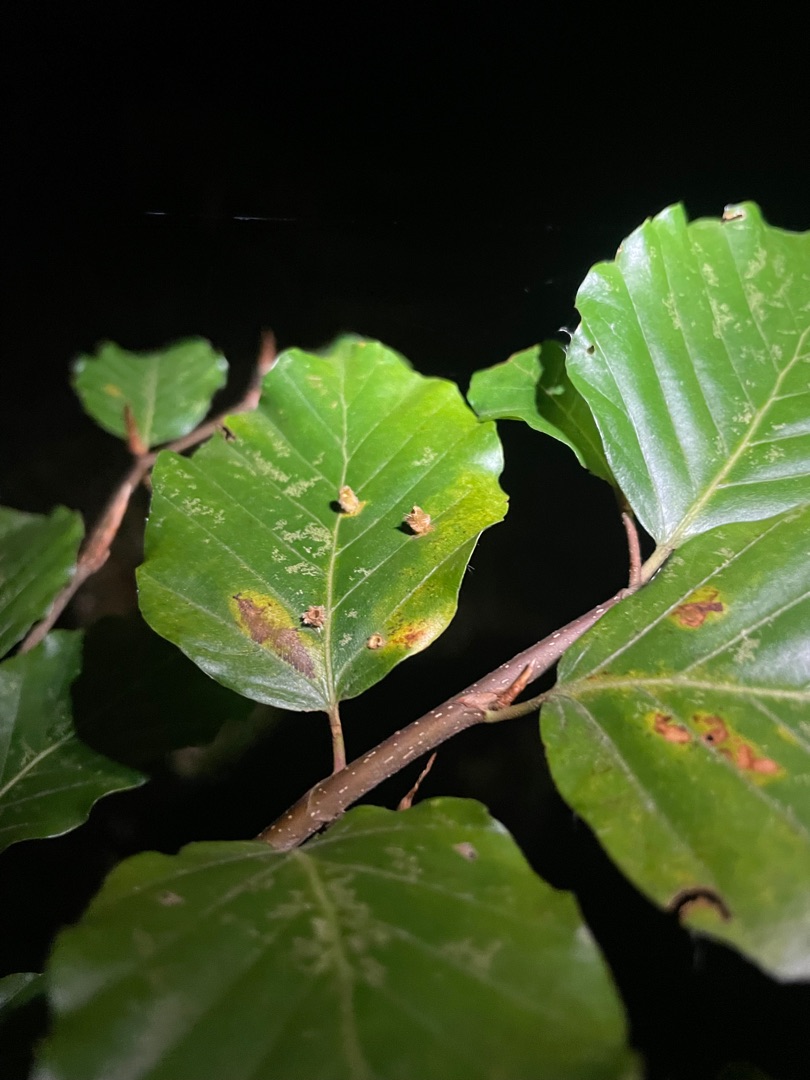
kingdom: Animalia
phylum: Arthropoda
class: Insecta
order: Diptera
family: Cecidomyiidae
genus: Mikiola
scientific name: Mikiola fagi
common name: Bøgegalmyg
